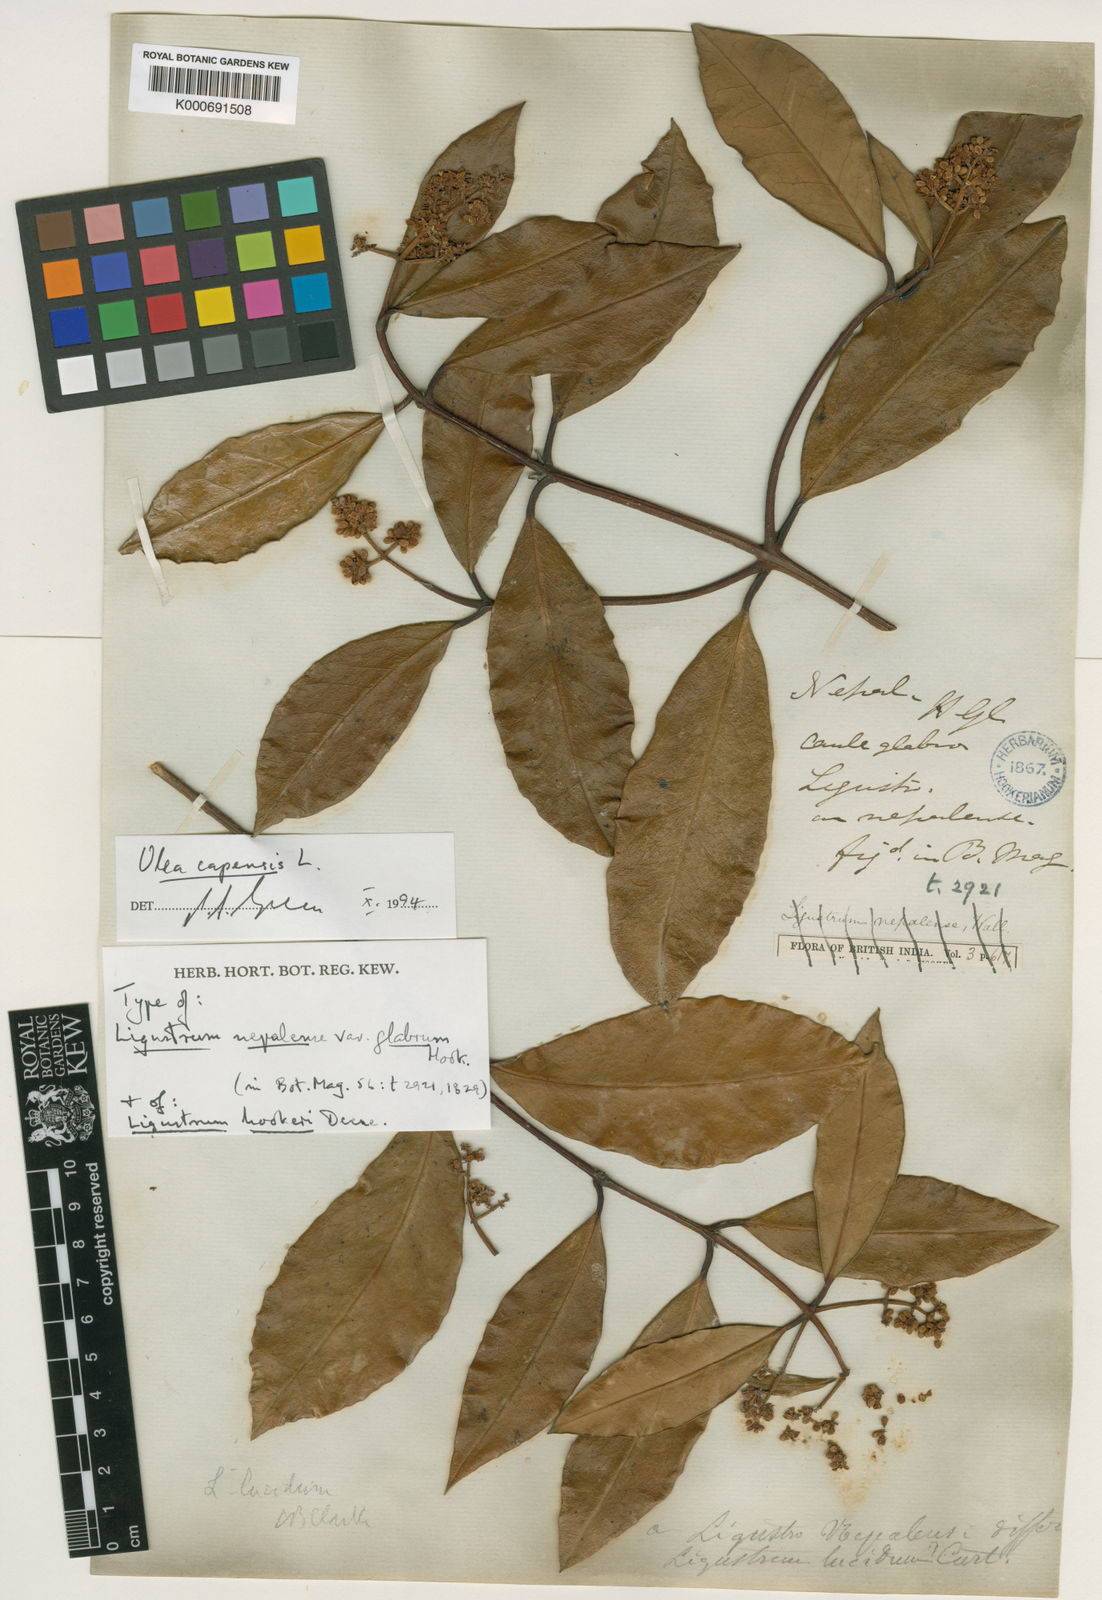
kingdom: Plantae
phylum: Tracheophyta
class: Magnoliopsida
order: Lamiales
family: Oleaceae
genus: Noronhia
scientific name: Noronhia
